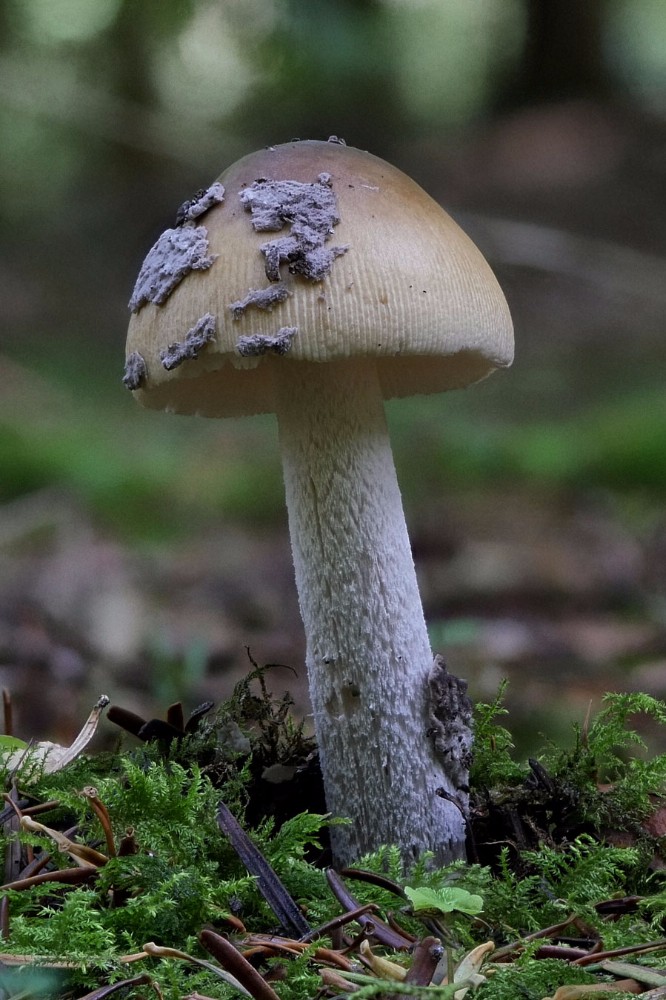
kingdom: Fungi
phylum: Basidiomycota
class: Agaricomycetes
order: Agaricales
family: Amanitaceae
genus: Amanita
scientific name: Amanita ceciliae
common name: stor kam-fluesvamp
